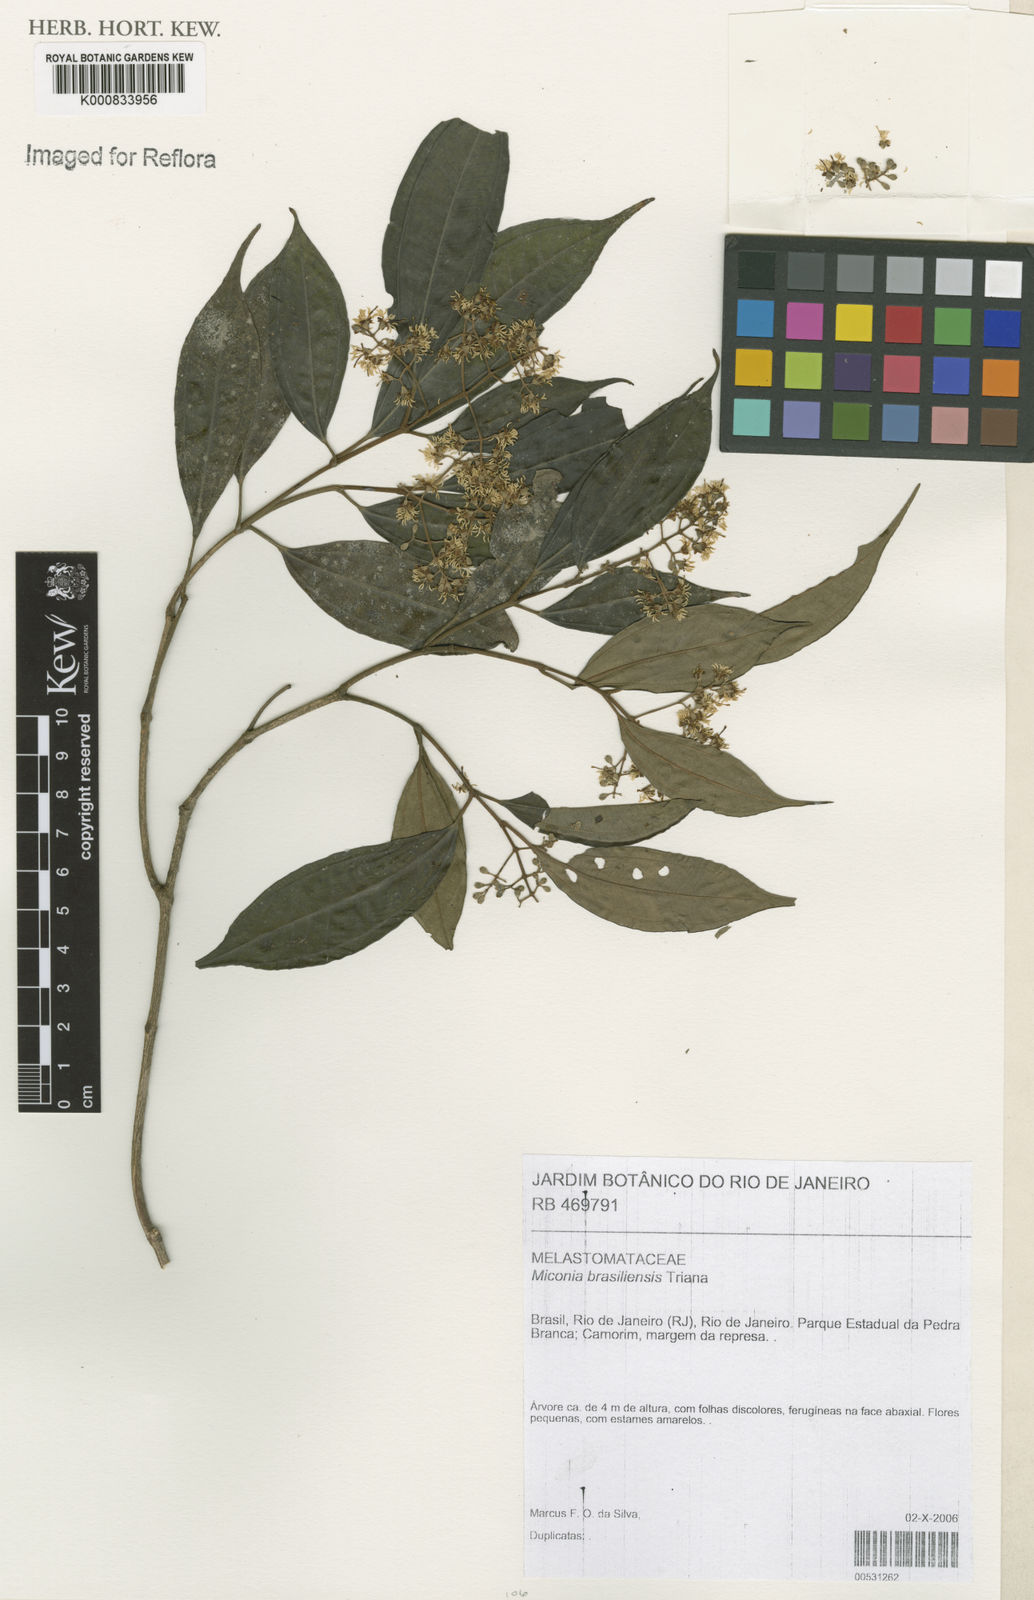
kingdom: Plantae
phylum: Tracheophyta
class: Magnoliopsida
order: Myrtales
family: Melastomataceae
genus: Miconia
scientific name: Miconia brasiliensis
